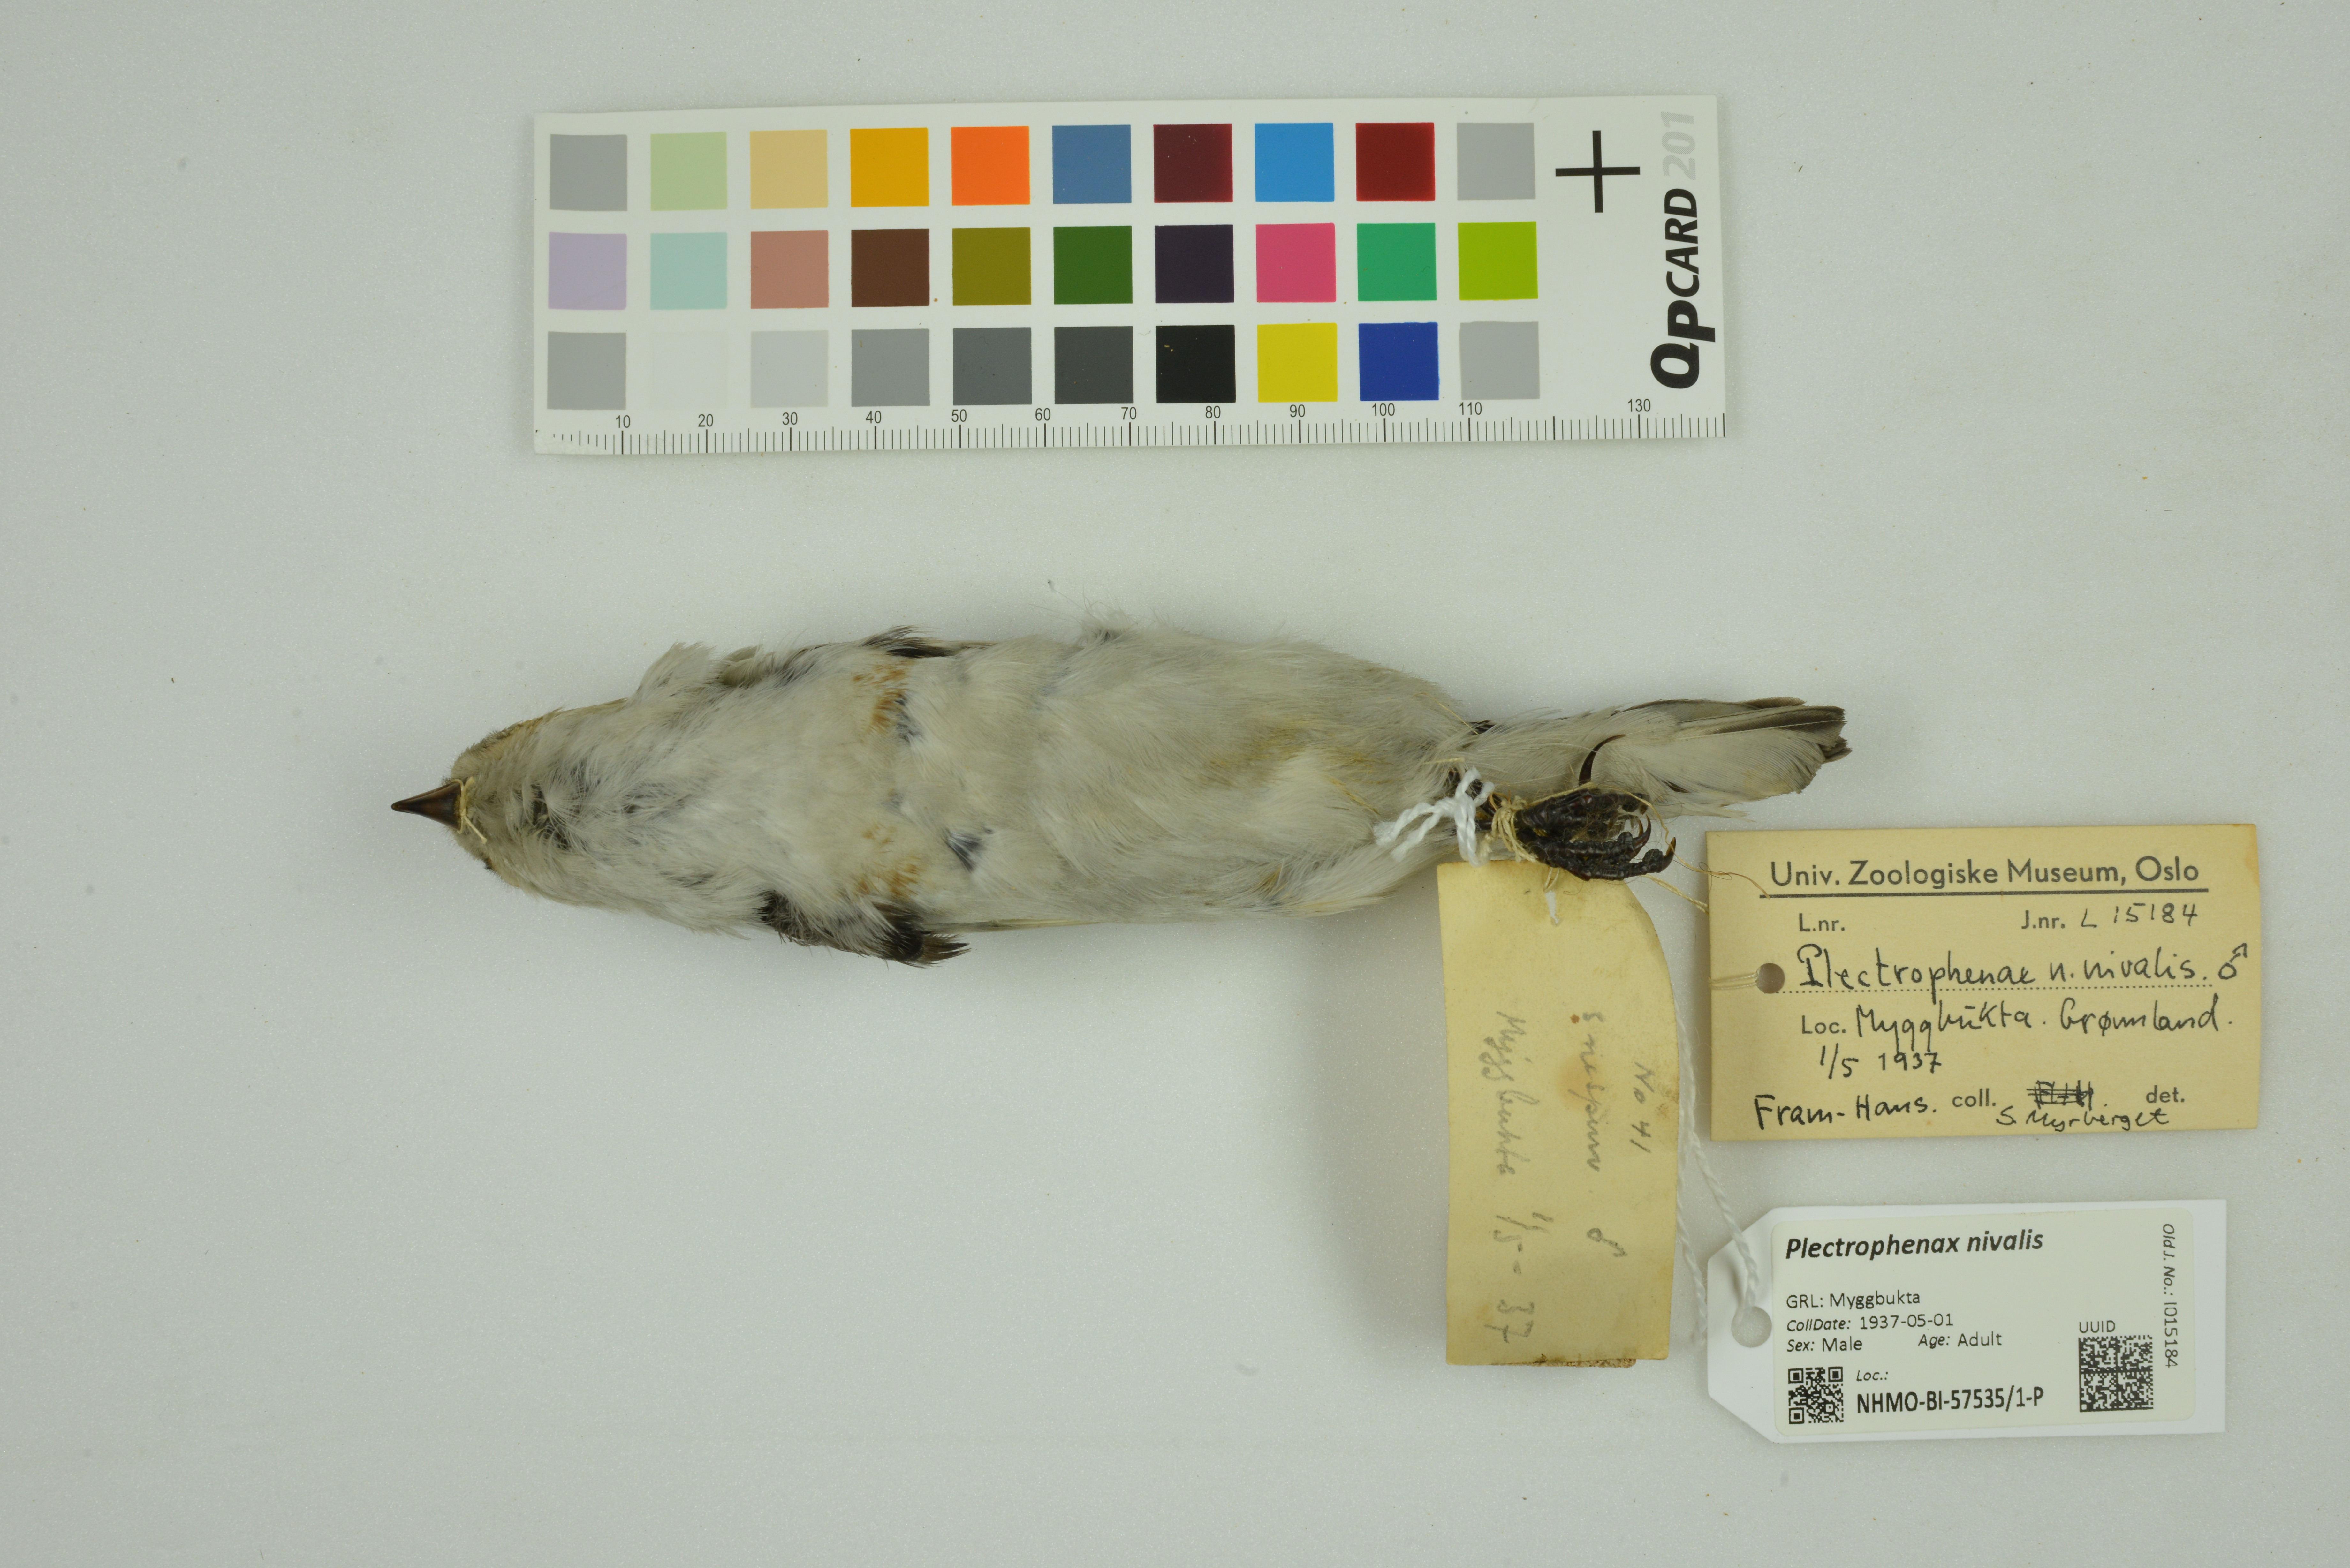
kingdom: Animalia
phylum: Chordata
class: Aves
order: Passeriformes
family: Calcariidae
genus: Plectrophenax
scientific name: Plectrophenax nivalis
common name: Snow bunting
